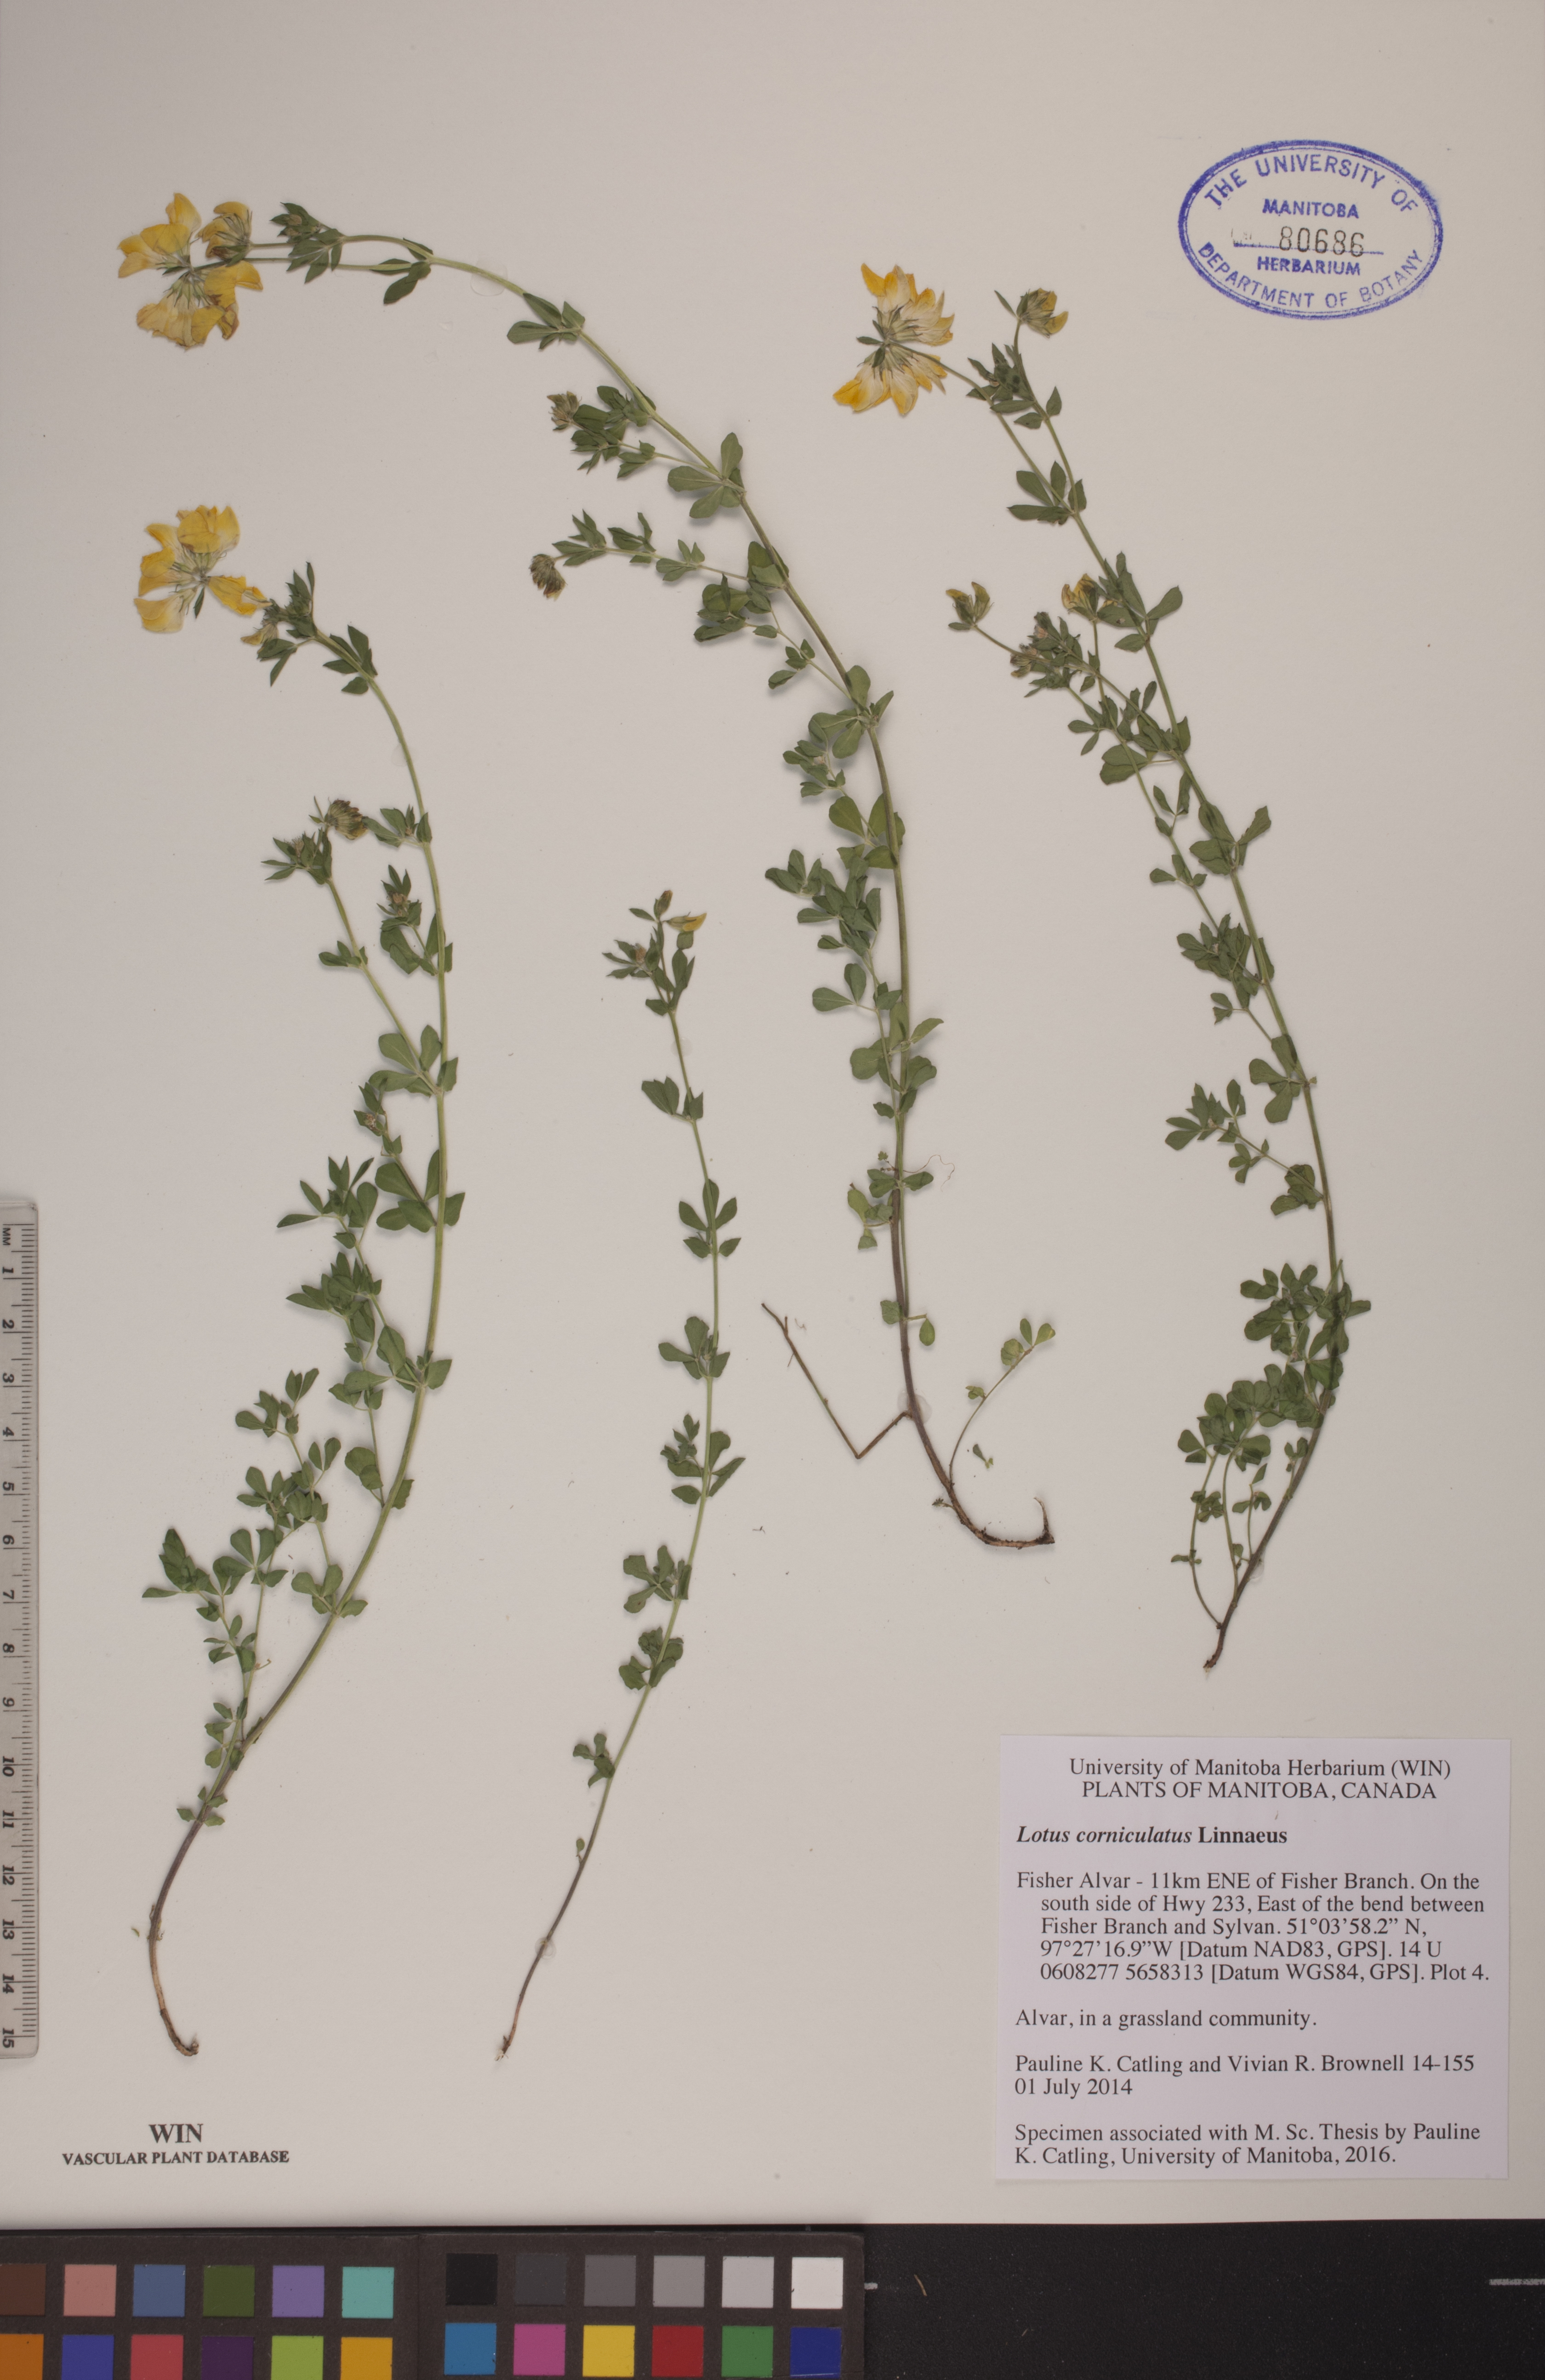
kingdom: Plantae
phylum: Tracheophyta
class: Magnoliopsida
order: Fabales
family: Fabaceae
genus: Lotus
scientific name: Lotus corniculatus
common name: Common bird's-foot-trefoil
